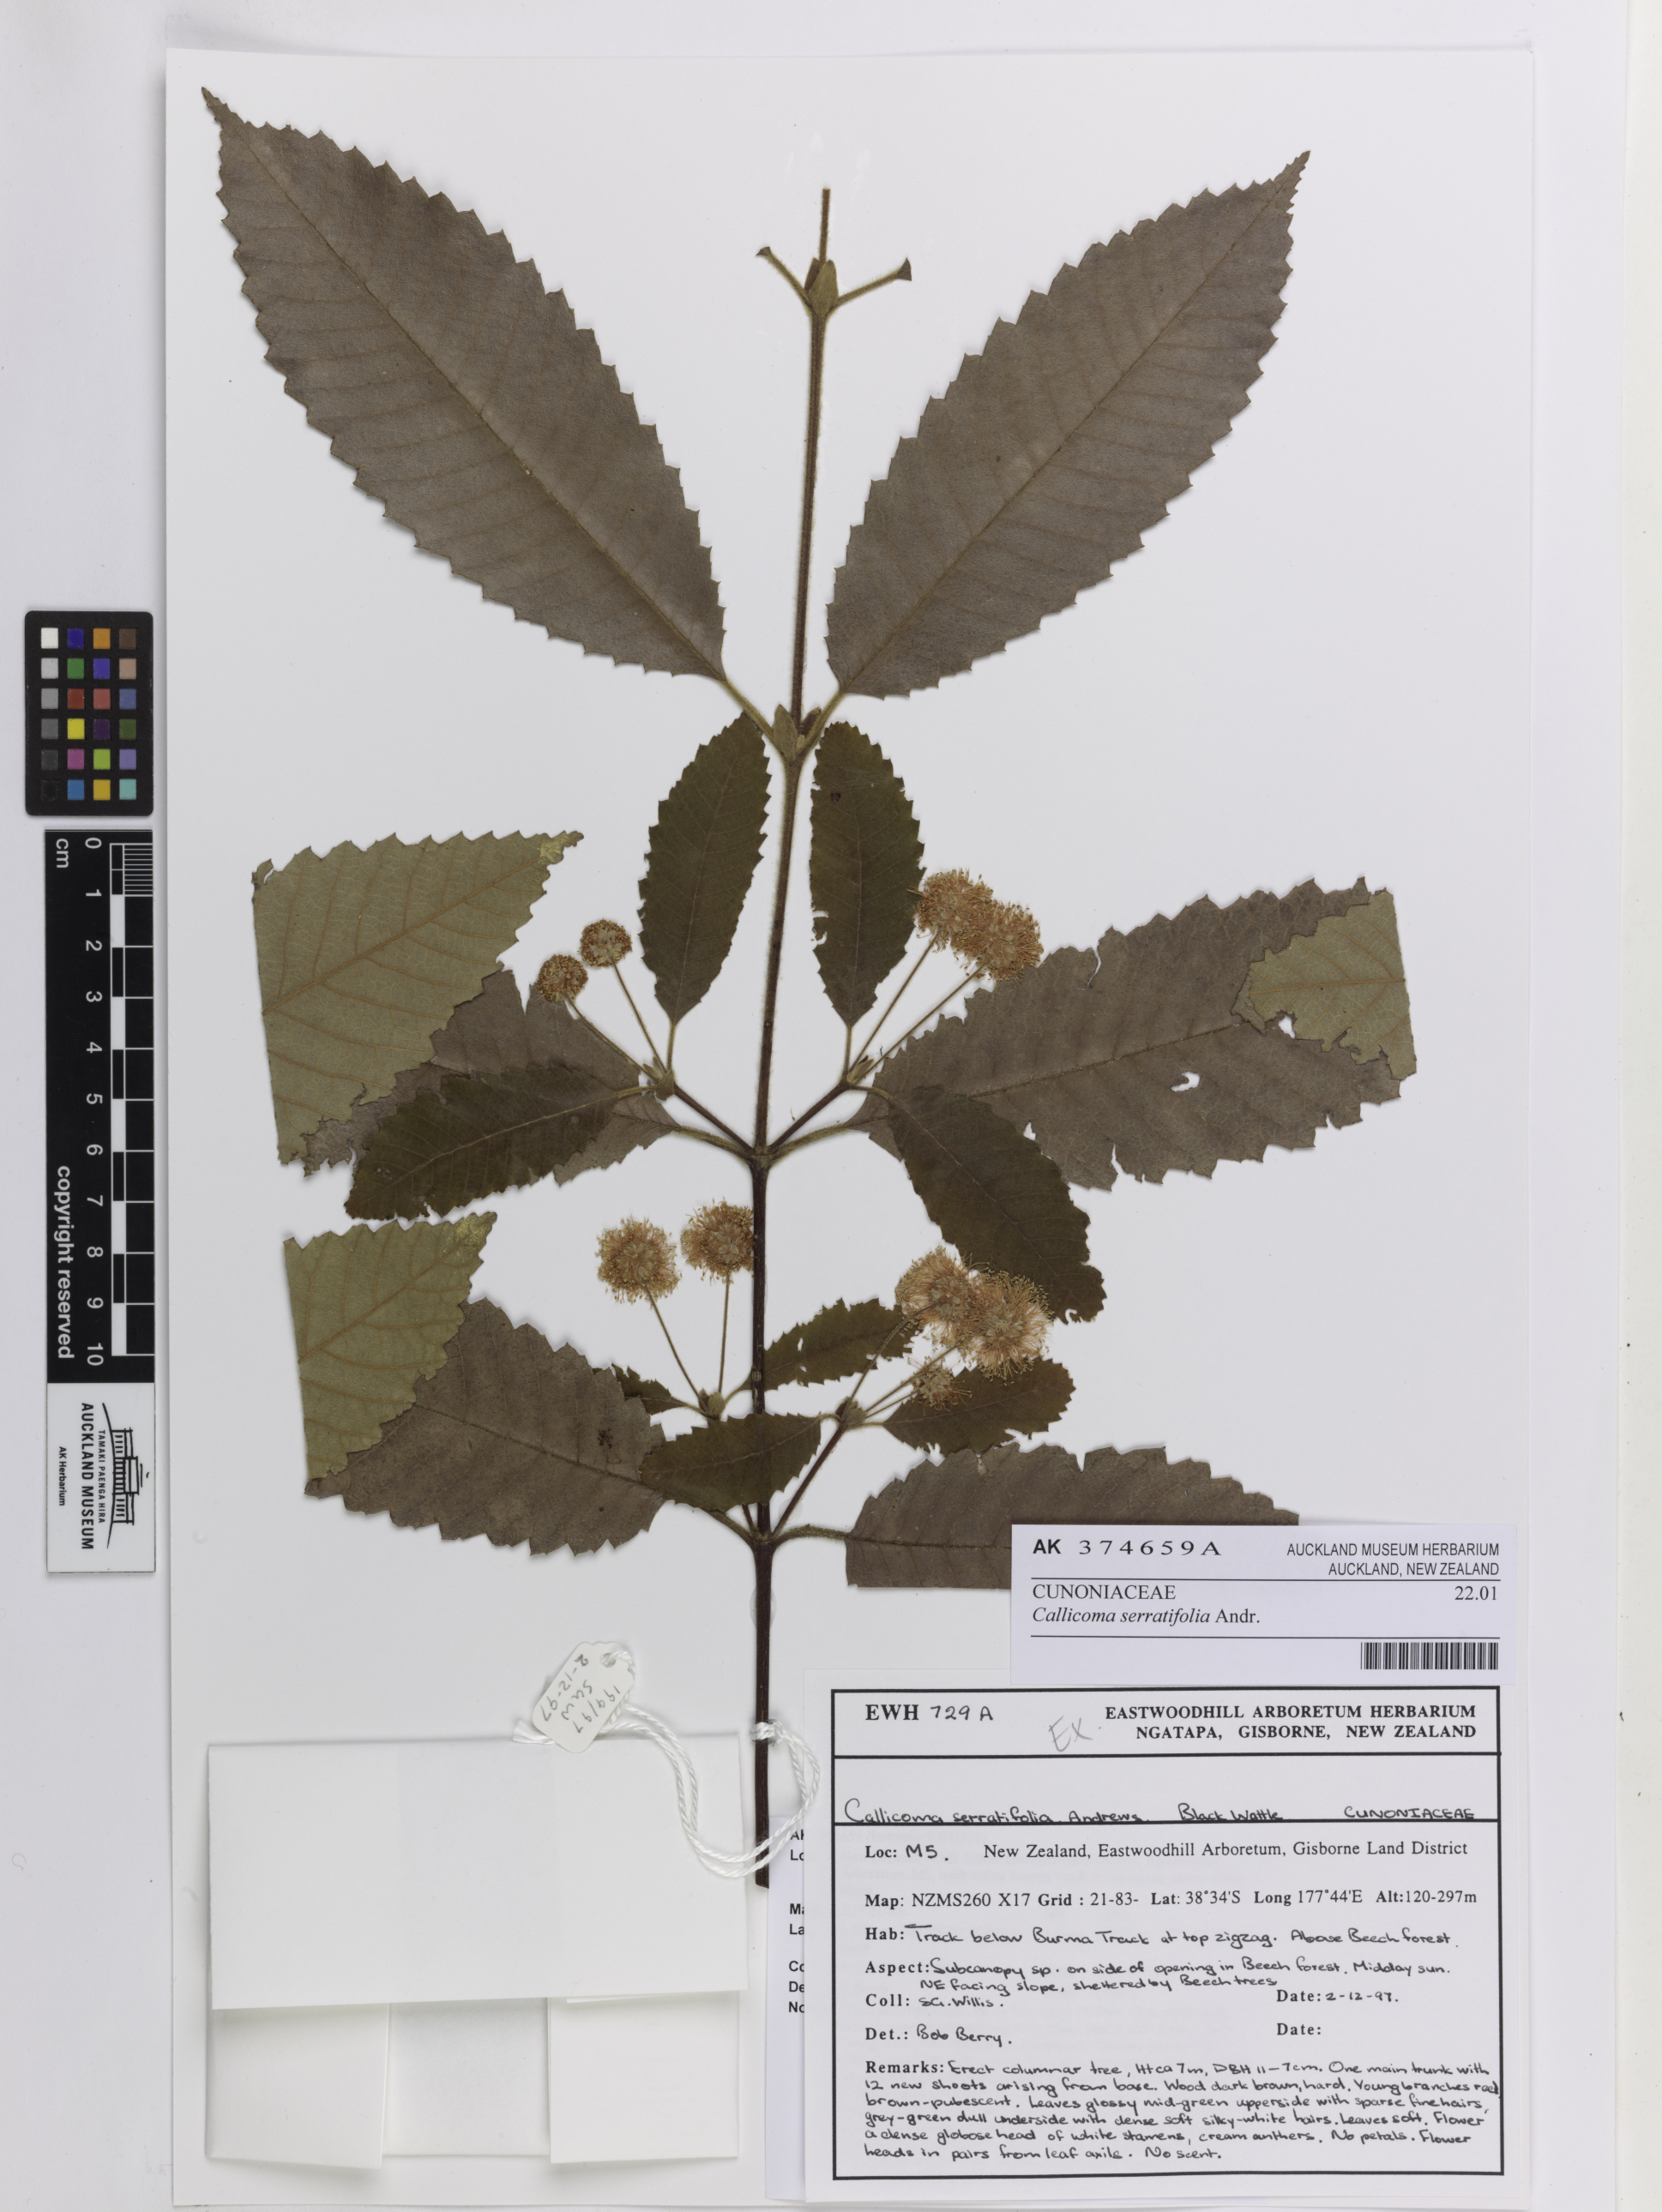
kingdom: Plantae
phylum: Tracheophyta
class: Magnoliopsida
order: Oxalidales
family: Cunoniaceae
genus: Callicoma
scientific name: Callicoma serratifolia
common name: Black wattle
